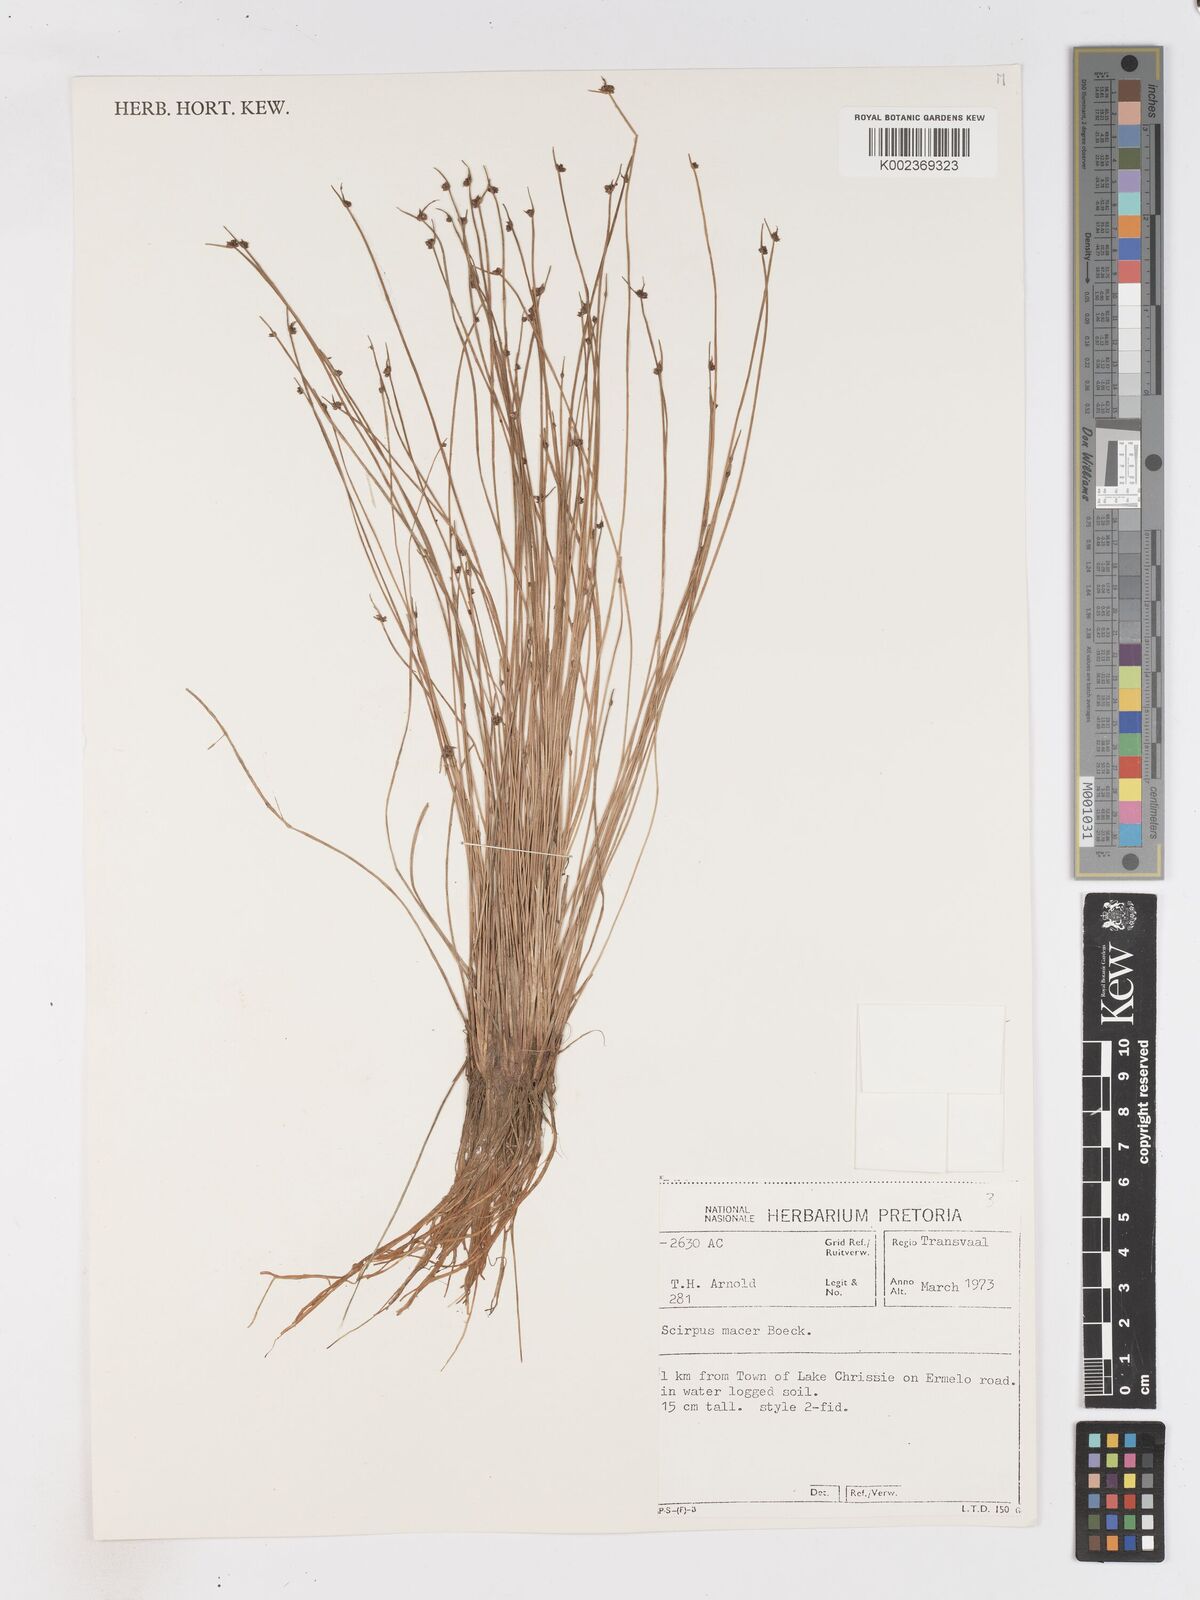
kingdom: Plantae
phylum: Tracheophyta
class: Liliopsida
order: Poales
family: Cyperaceae
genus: Isolepis
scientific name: Isolepis costata
